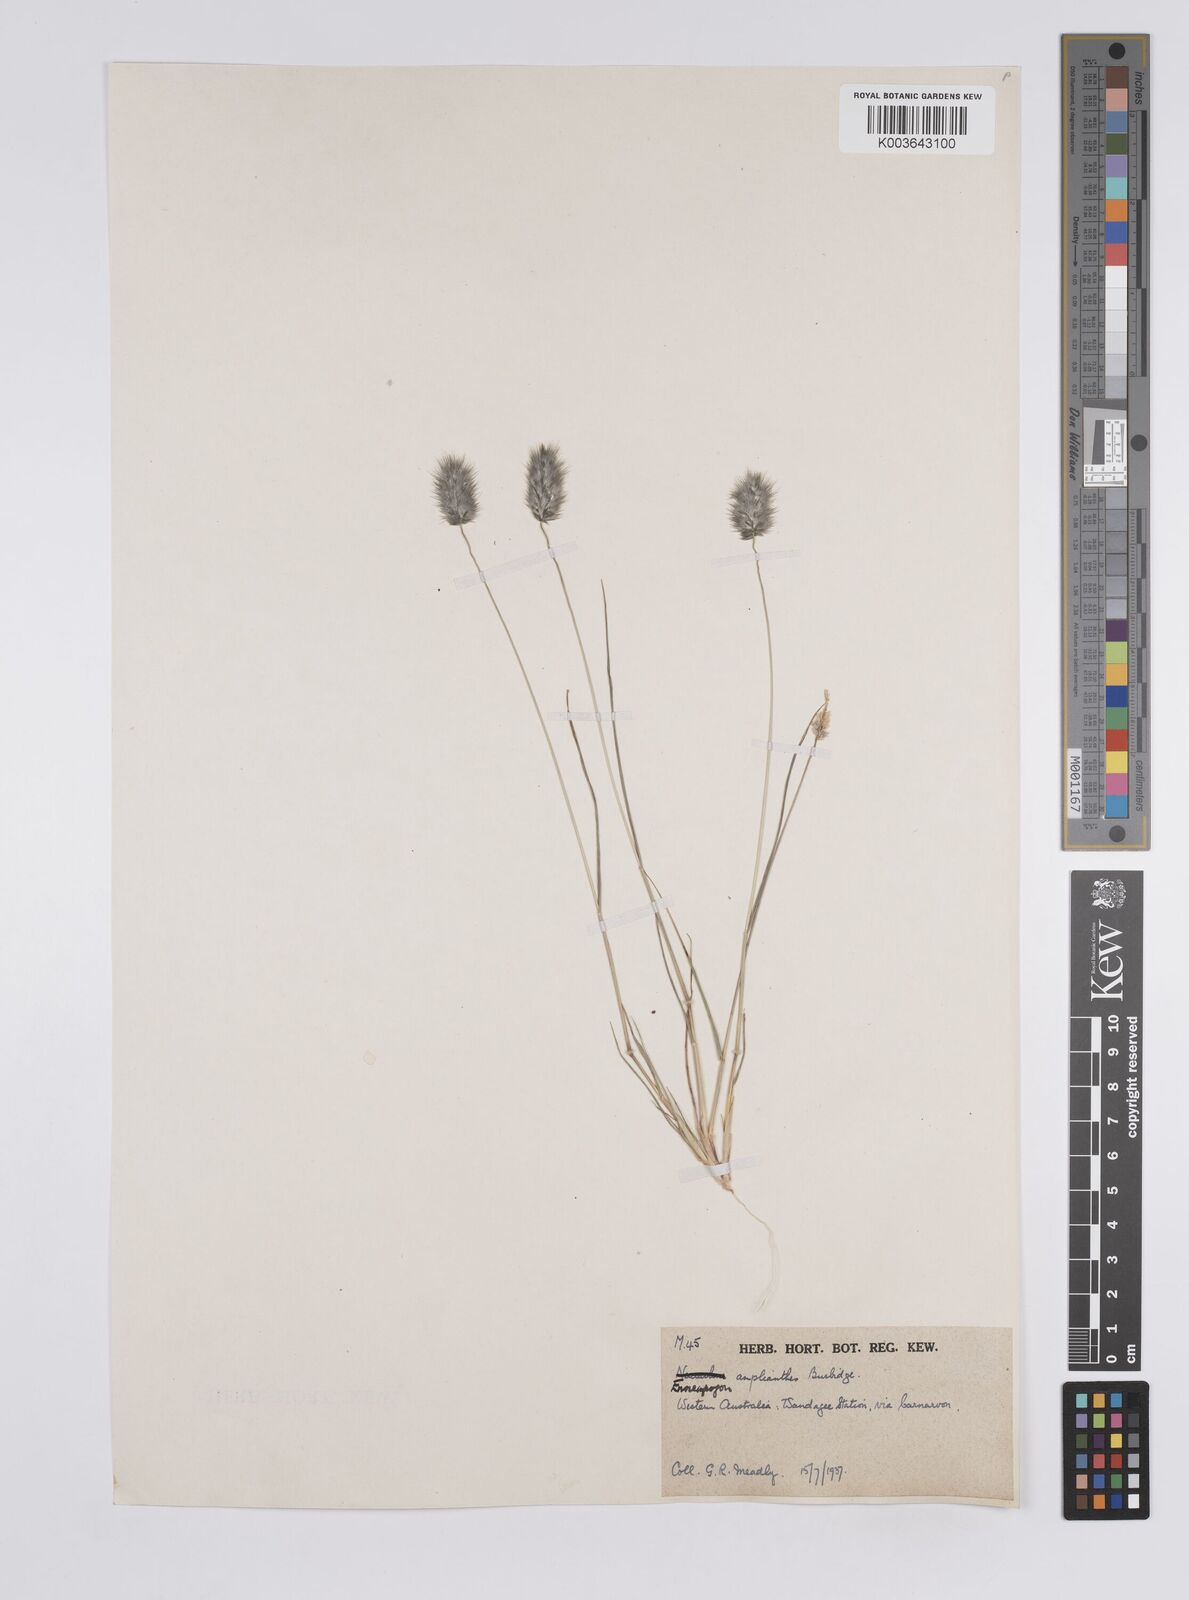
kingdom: Plantae
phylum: Tracheophyta
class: Liliopsida
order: Poales
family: Poaceae
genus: Enneapogon
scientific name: Enneapogon caerulescens
